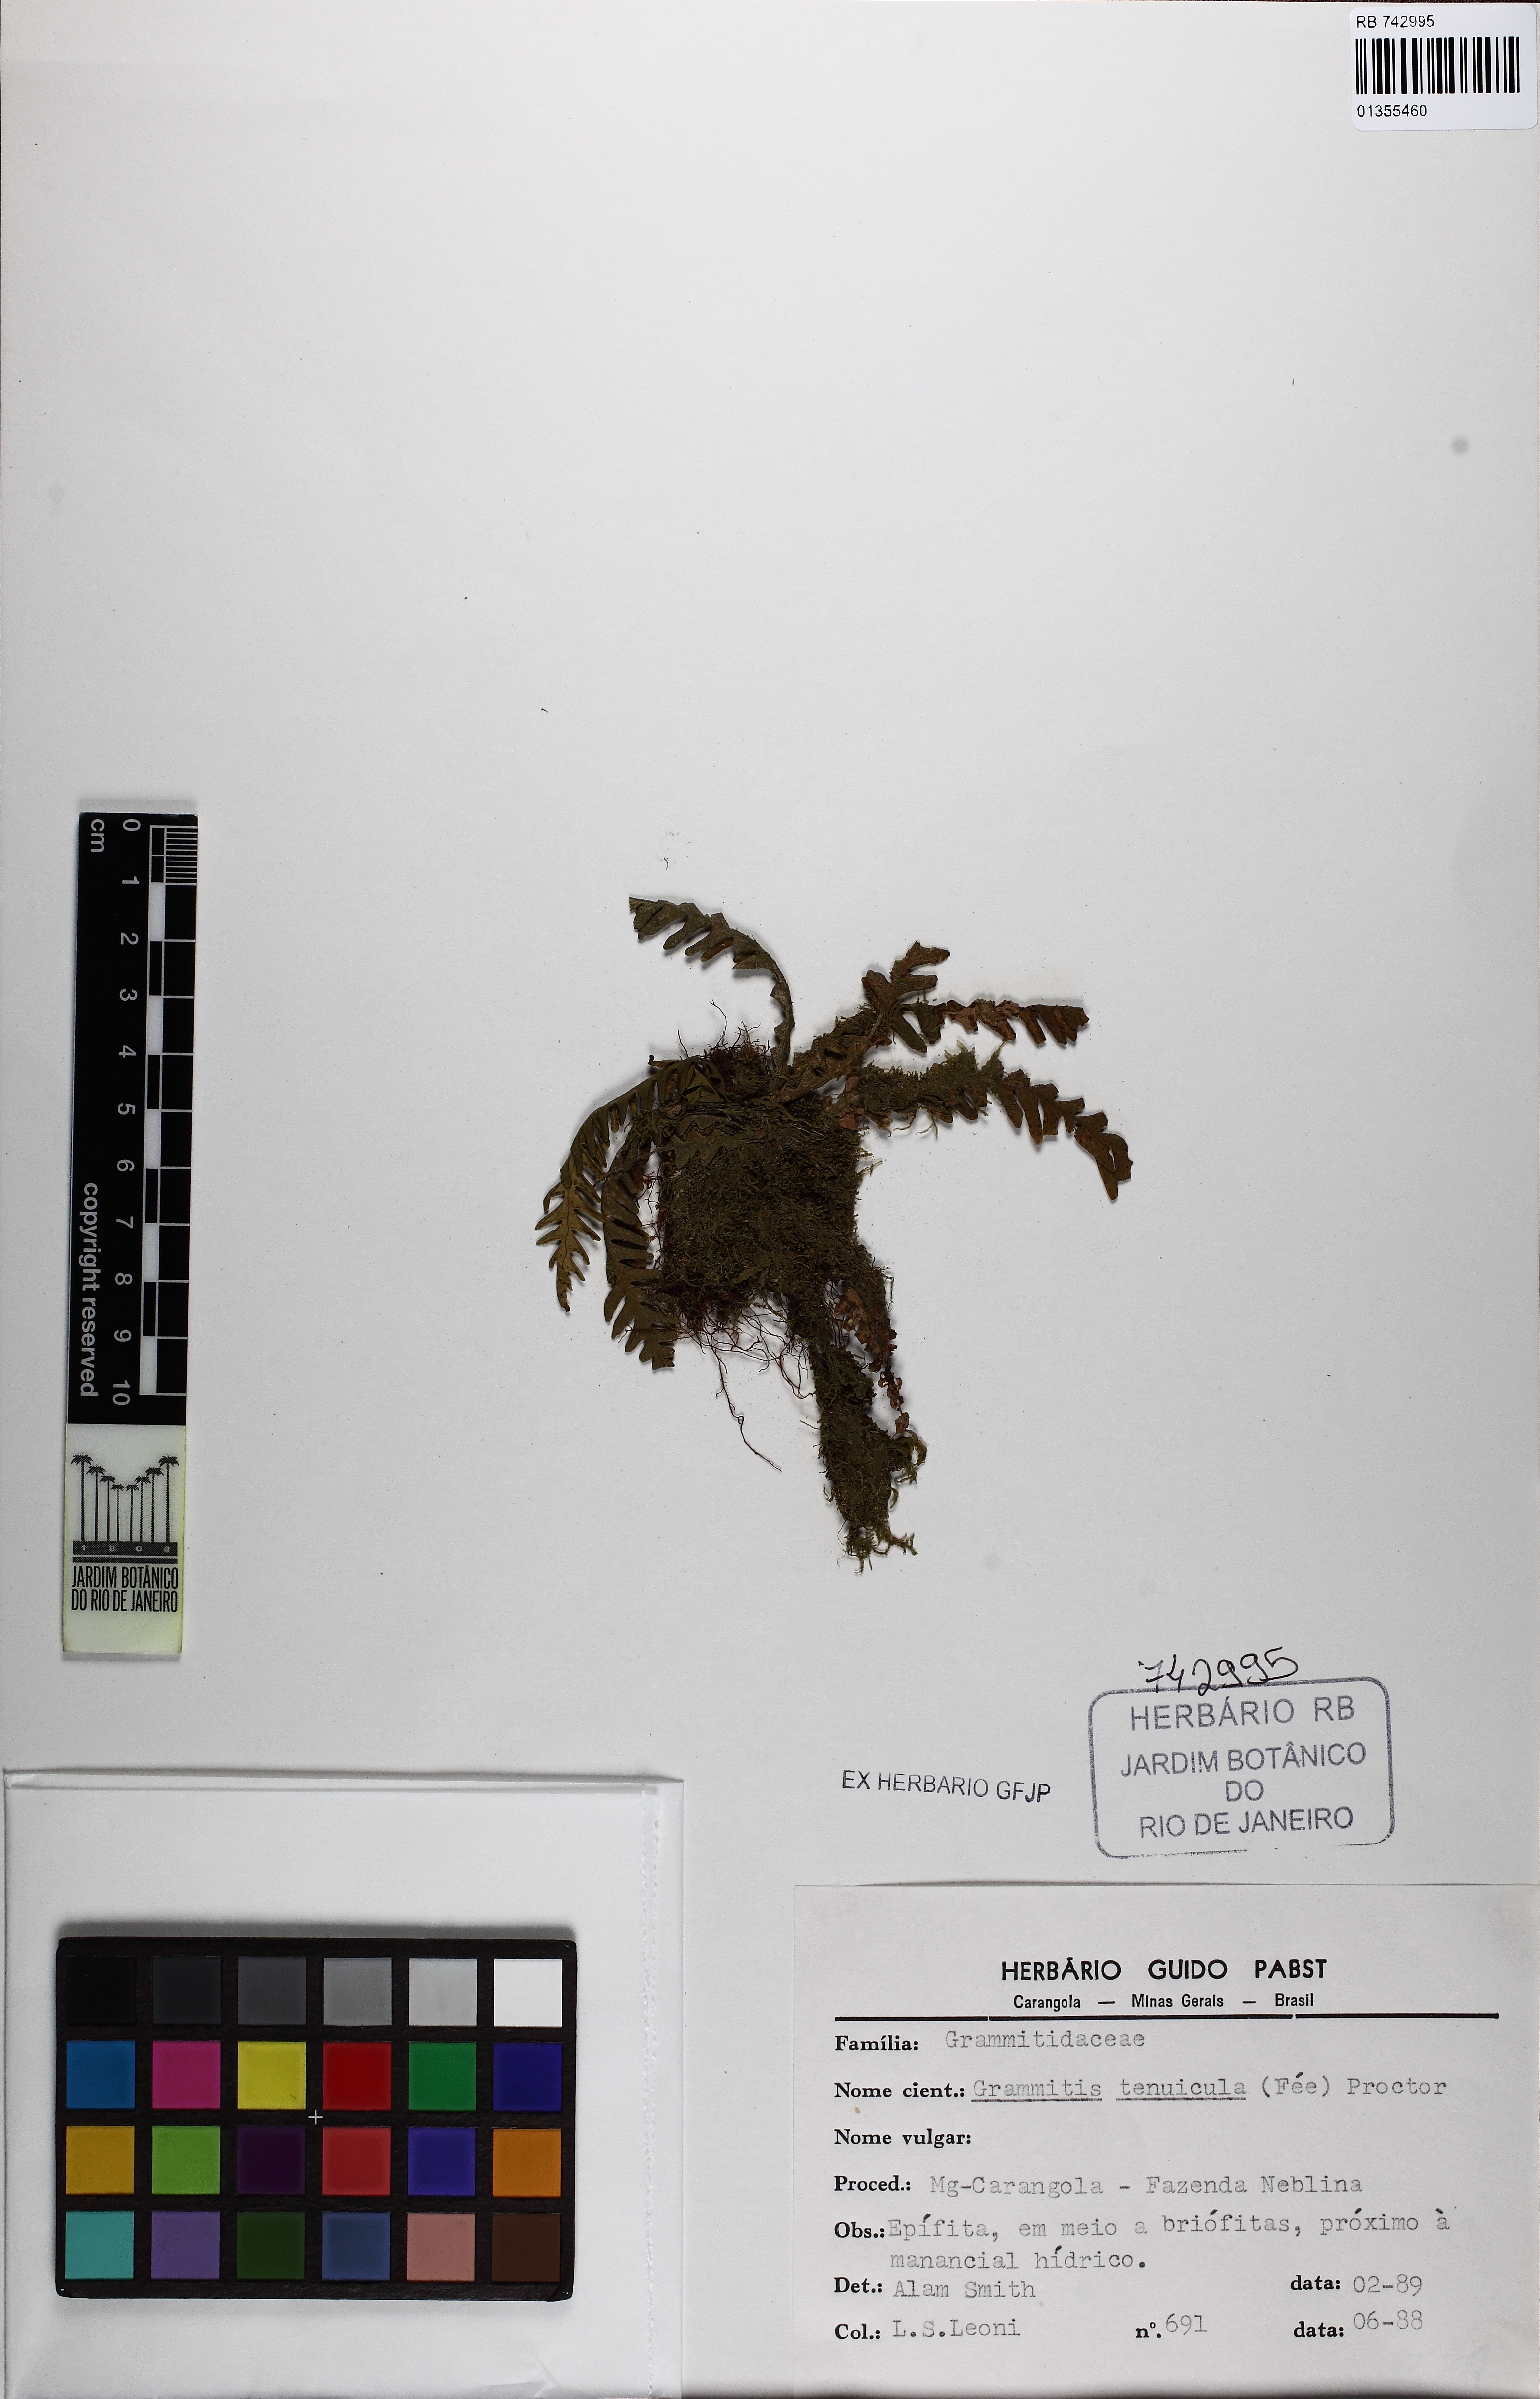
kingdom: Plantae
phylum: Tracheophyta
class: Polypodiopsida
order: Polypodiales
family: Polypodiaceae
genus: Lellingeria
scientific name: Lellingeria tenuicula
